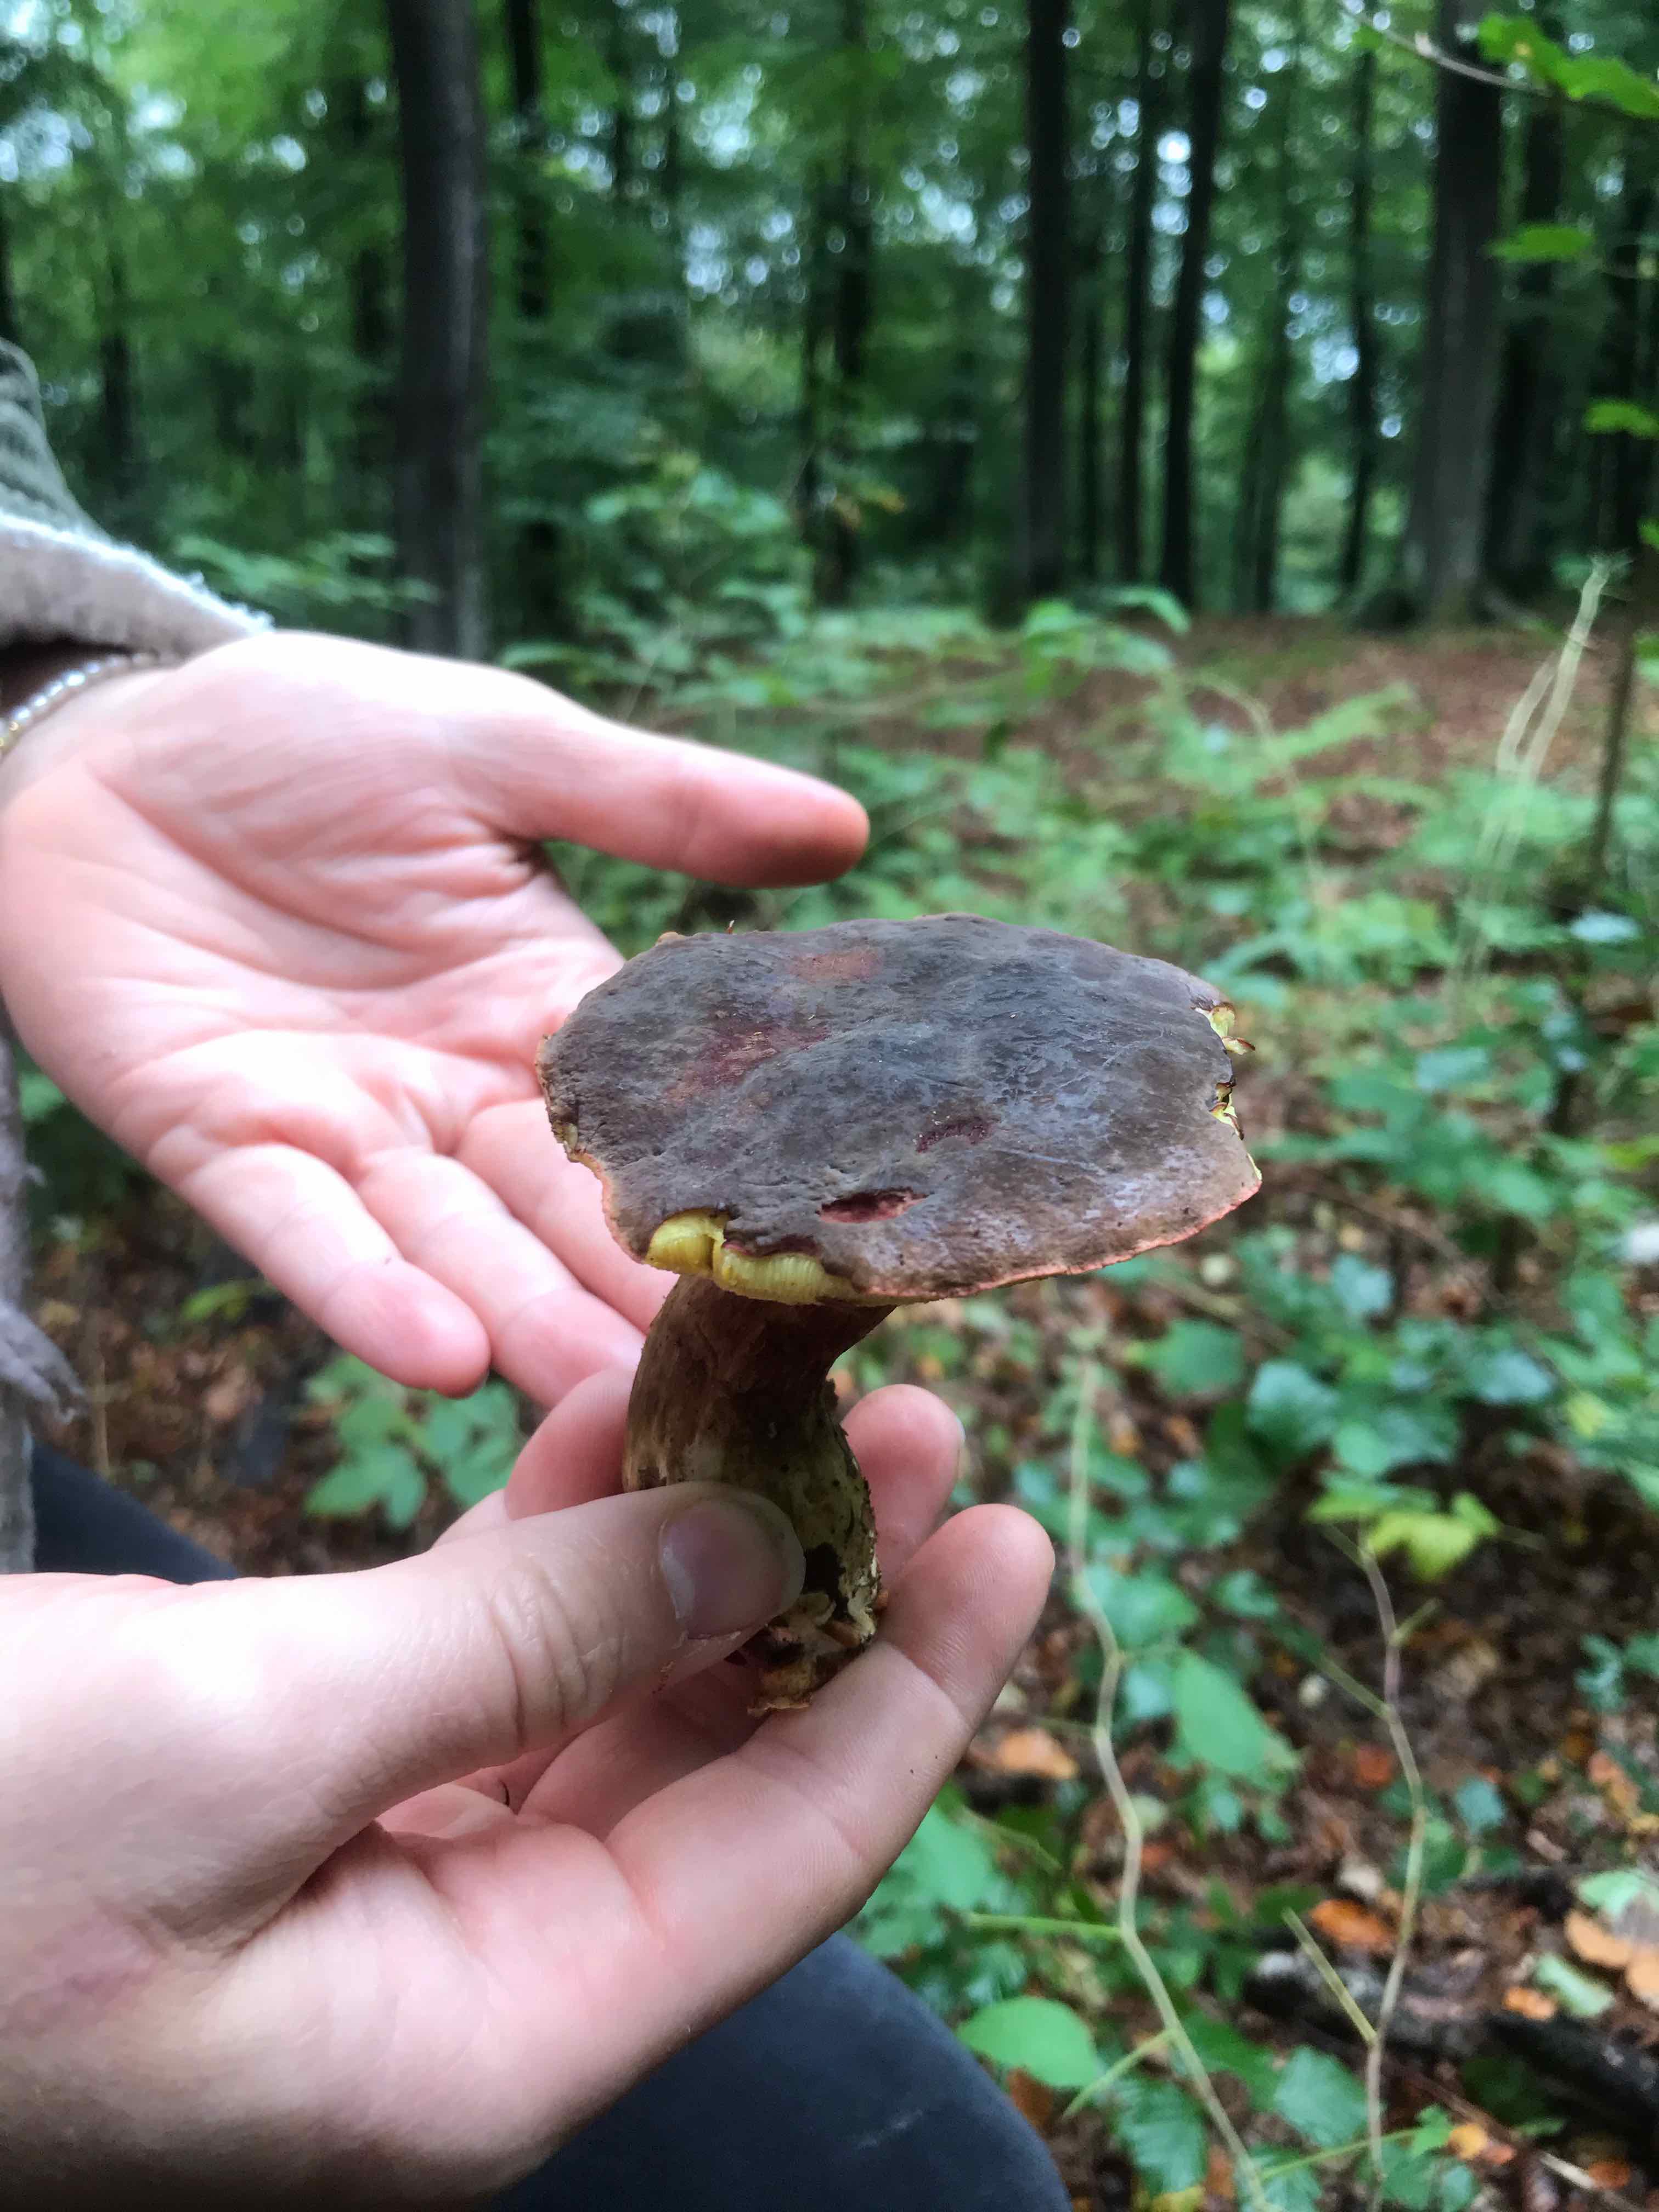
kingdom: Fungi
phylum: Basidiomycota
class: Agaricomycetes
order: Boletales
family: Boletaceae
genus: Xerocomellus
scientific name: Xerocomellus pruinatus
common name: dugget rørhat
